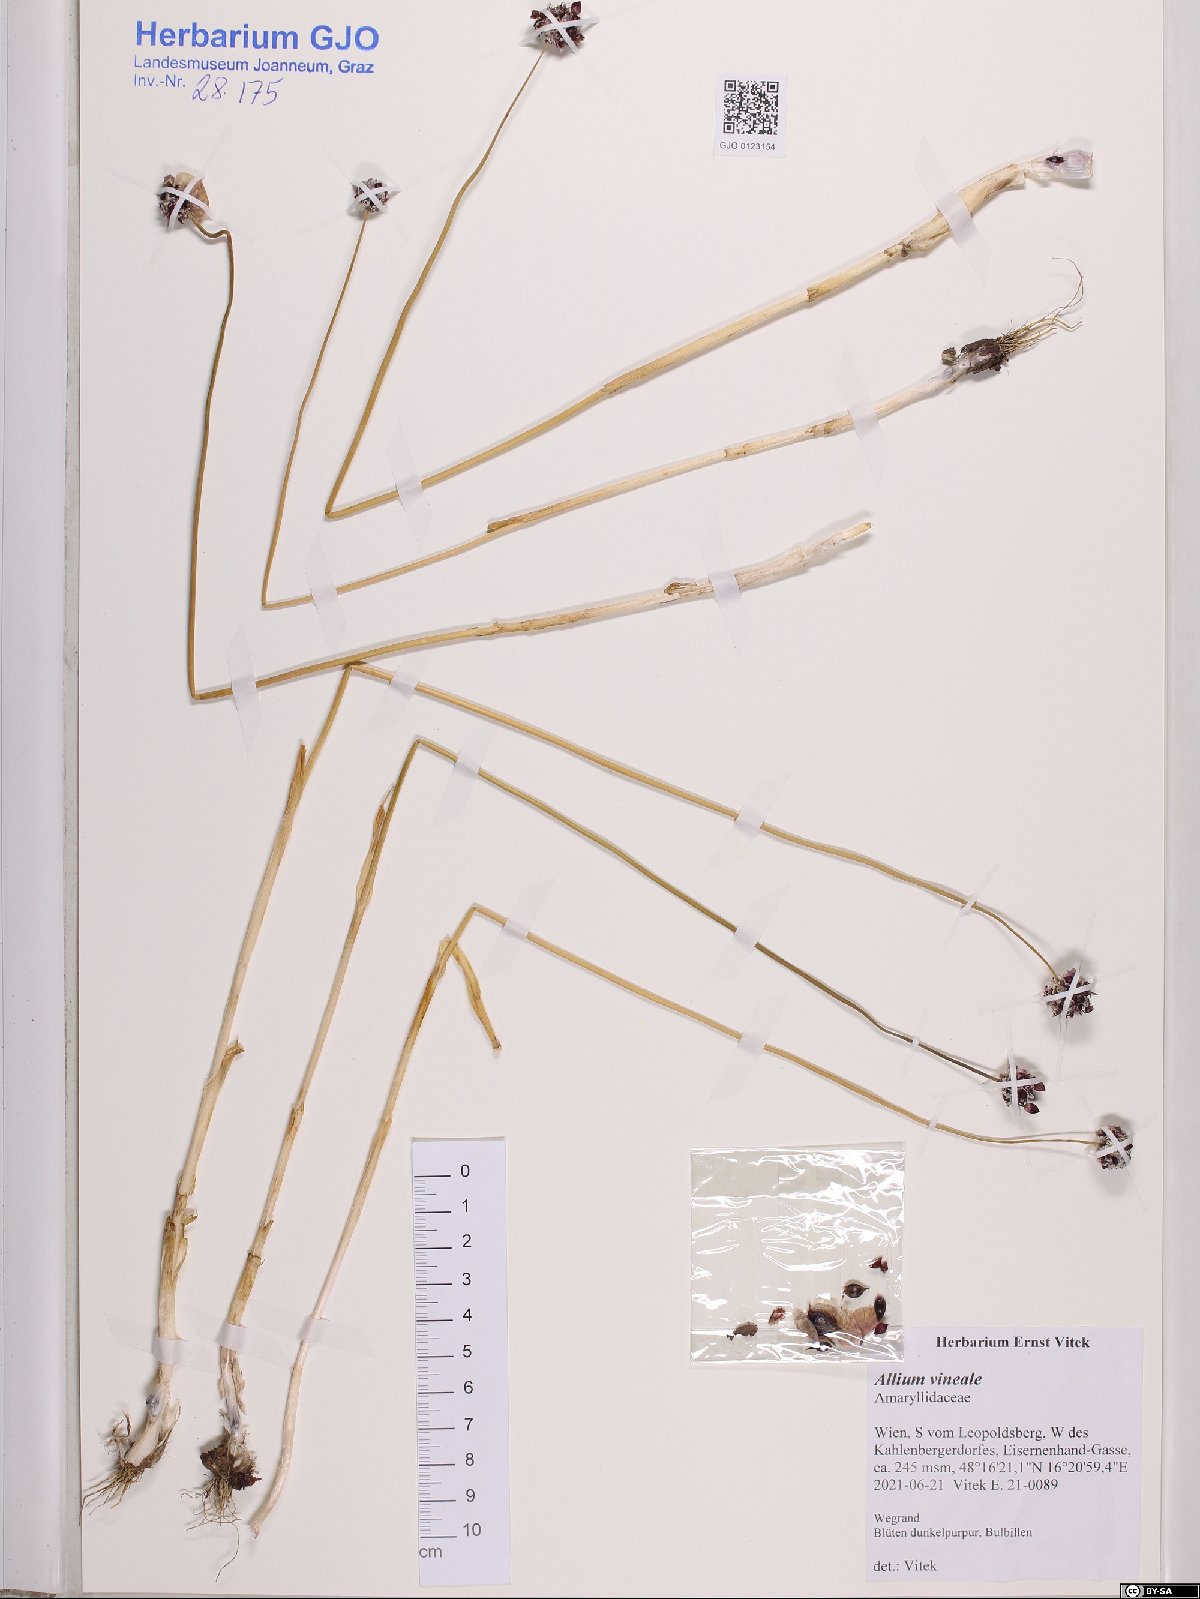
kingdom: Plantae
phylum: Tracheophyta
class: Liliopsida
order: Asparagales
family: Amaryllidaceae
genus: Allium
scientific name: Allium vineale
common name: Crow garlic
